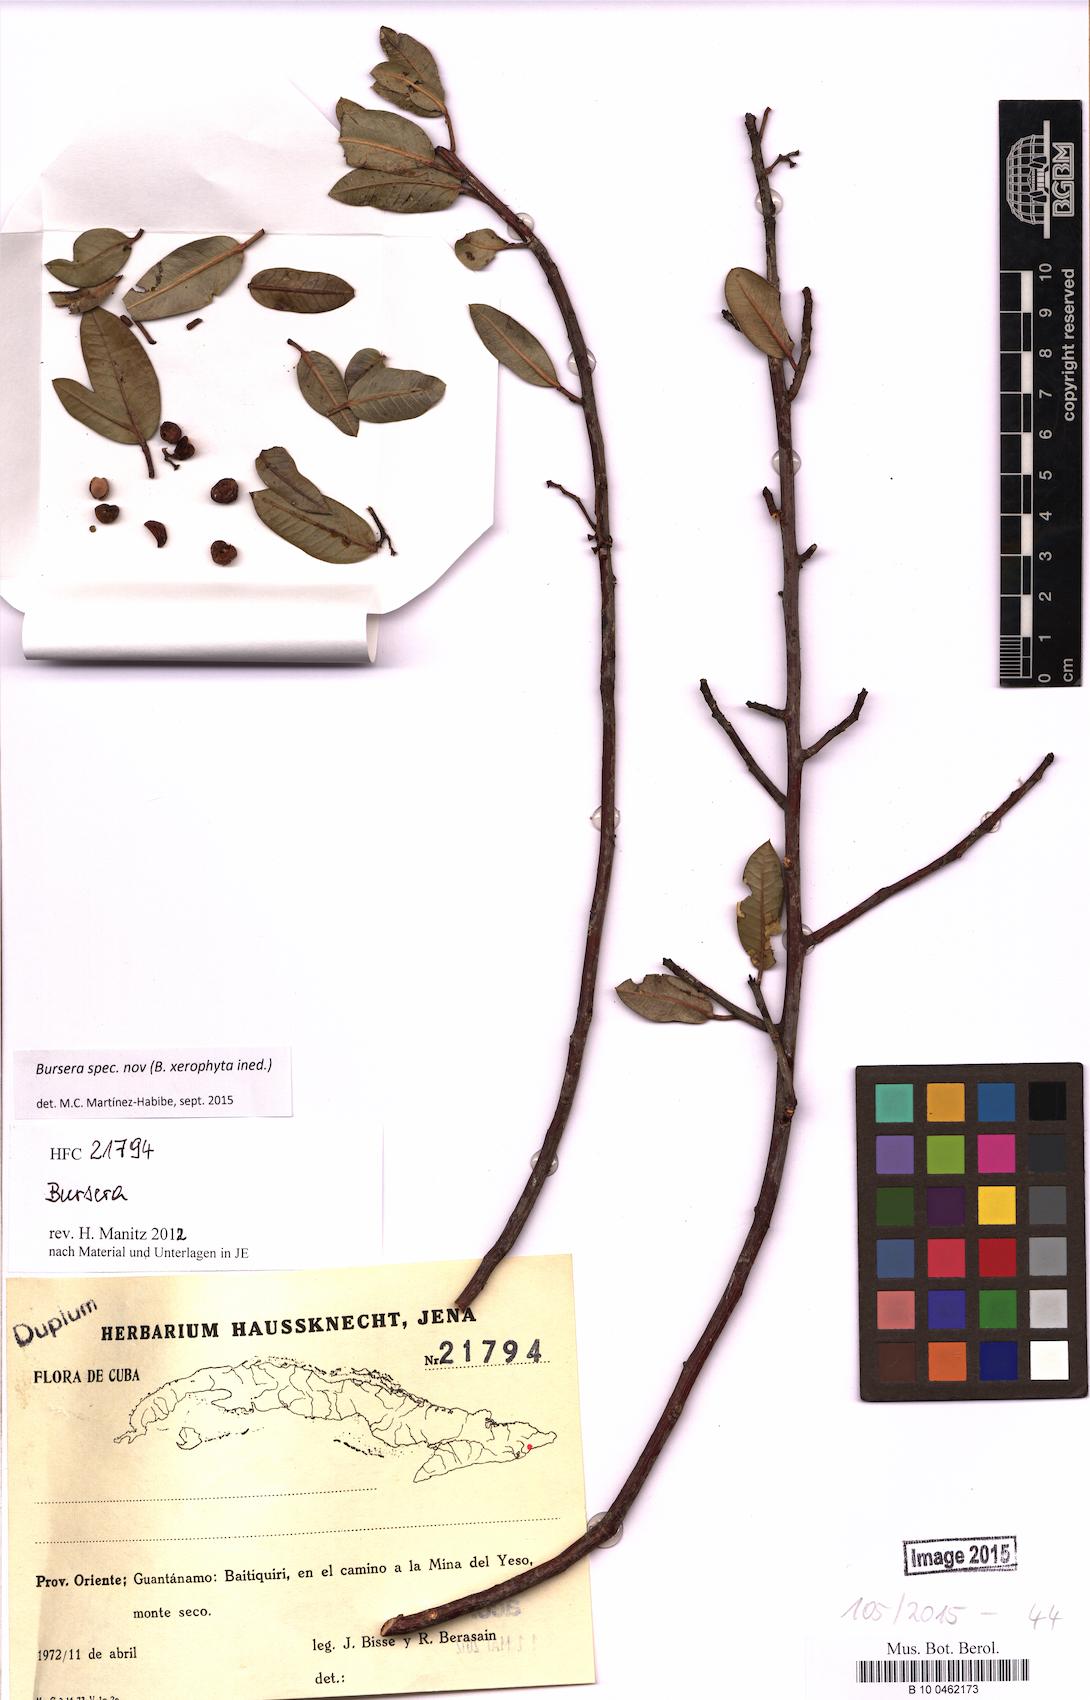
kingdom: Plantae
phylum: Tracheophyta
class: Magnoliopsida
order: Sapindales
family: Burseraceae
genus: Bursera
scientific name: Bursera
